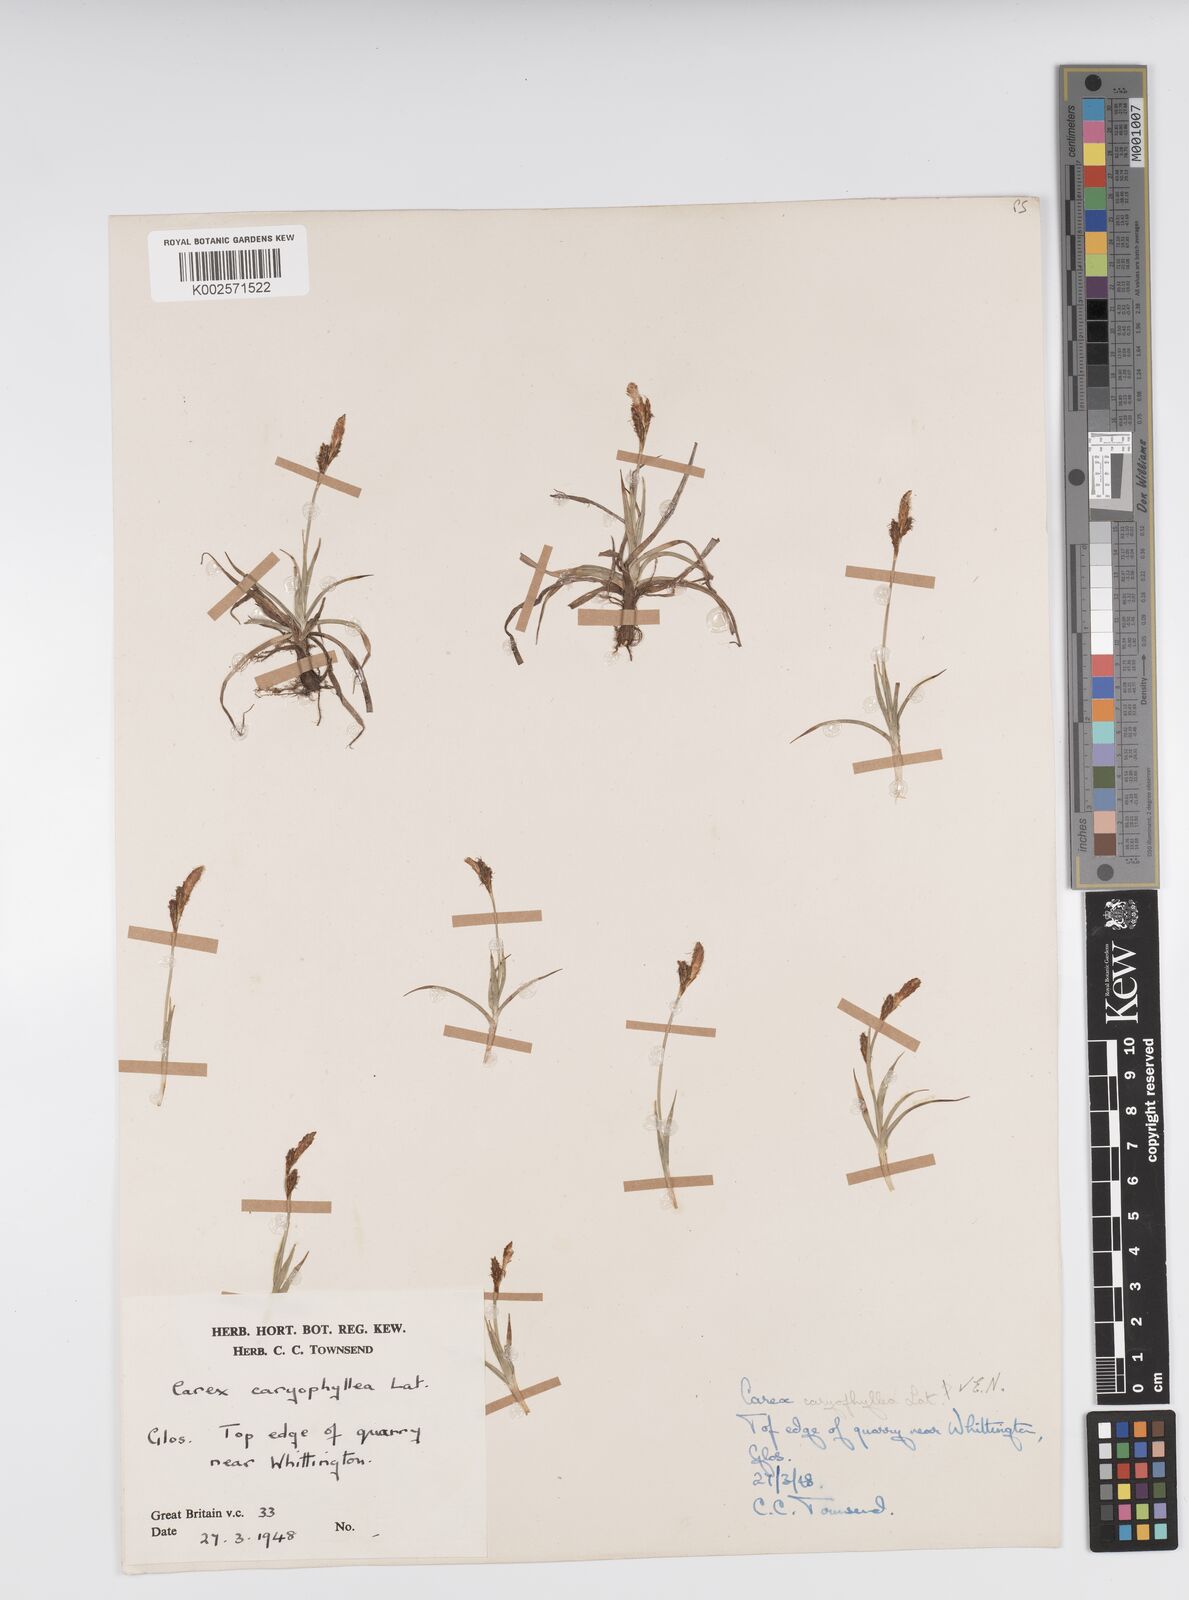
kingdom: Plantae
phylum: Tracheophyta
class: Liliopsida
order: Poales
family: Cyperaceae
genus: Carex
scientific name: Carex caryophyllea
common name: Spring sedge
